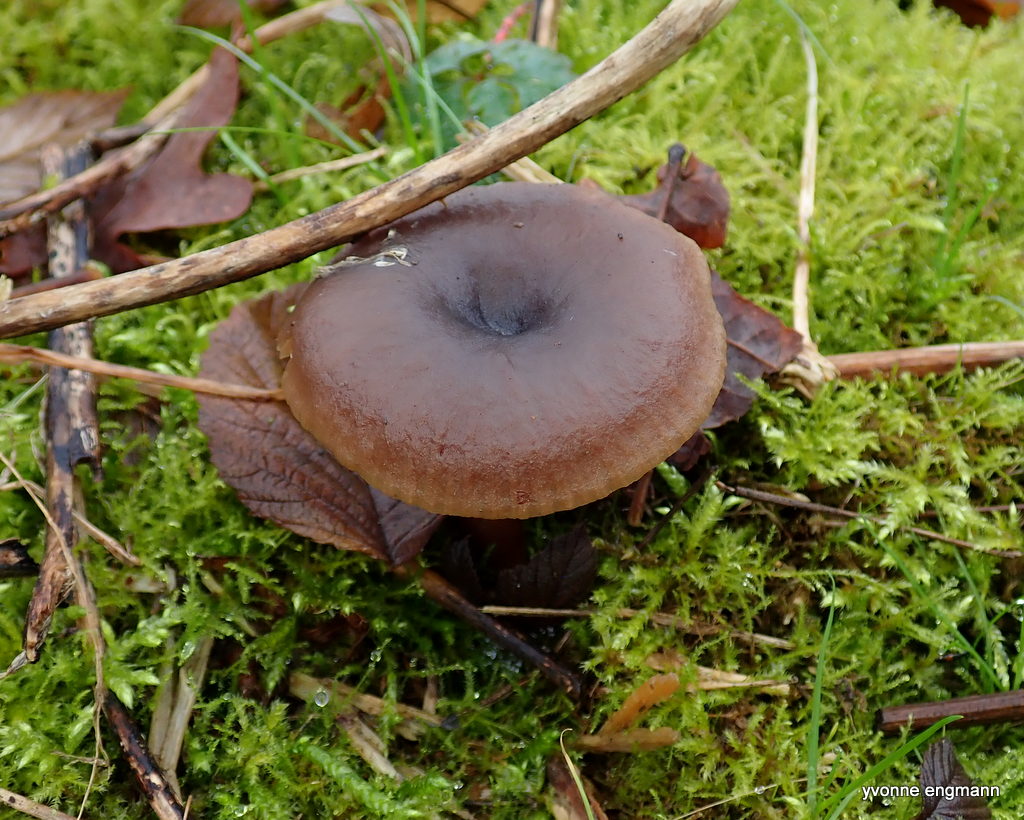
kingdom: Fungi
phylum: Basidiomycota
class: Agaricomycetes
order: Agaricales
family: Pseudoclitocybaceae
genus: Pseudoclitocybe
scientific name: Pseudoclitocybe cyathiformis
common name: almindelig bægertragthat
